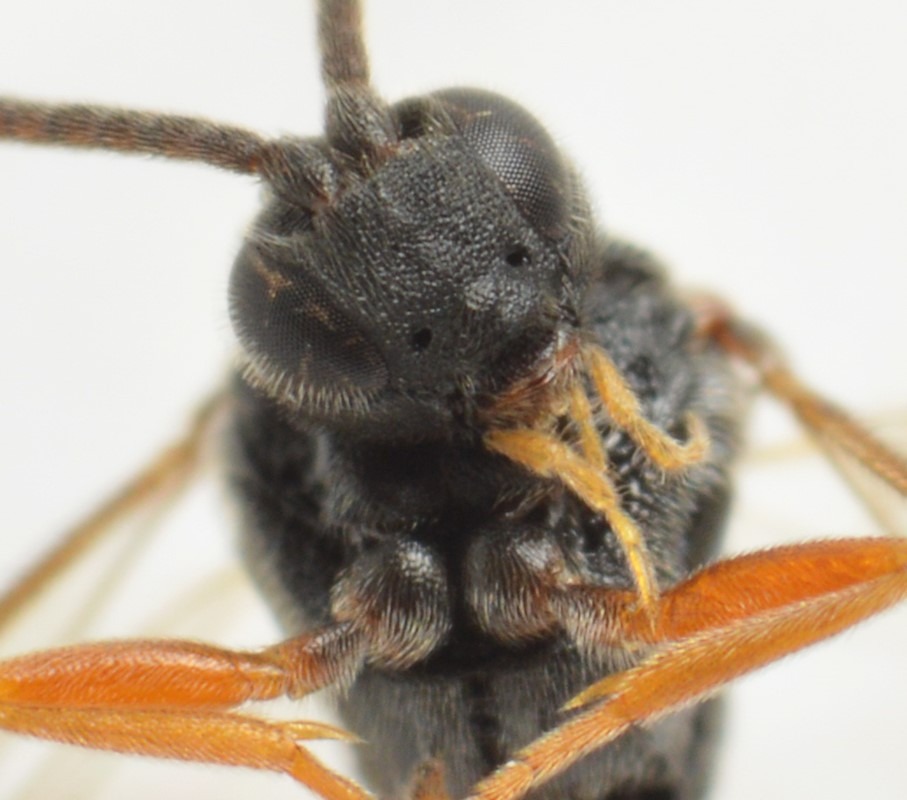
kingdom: Animalia
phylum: Arthropoda
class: Insecta
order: Hymenoptera
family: Braconidae
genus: Microplitis
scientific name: Microplitis sordipes
